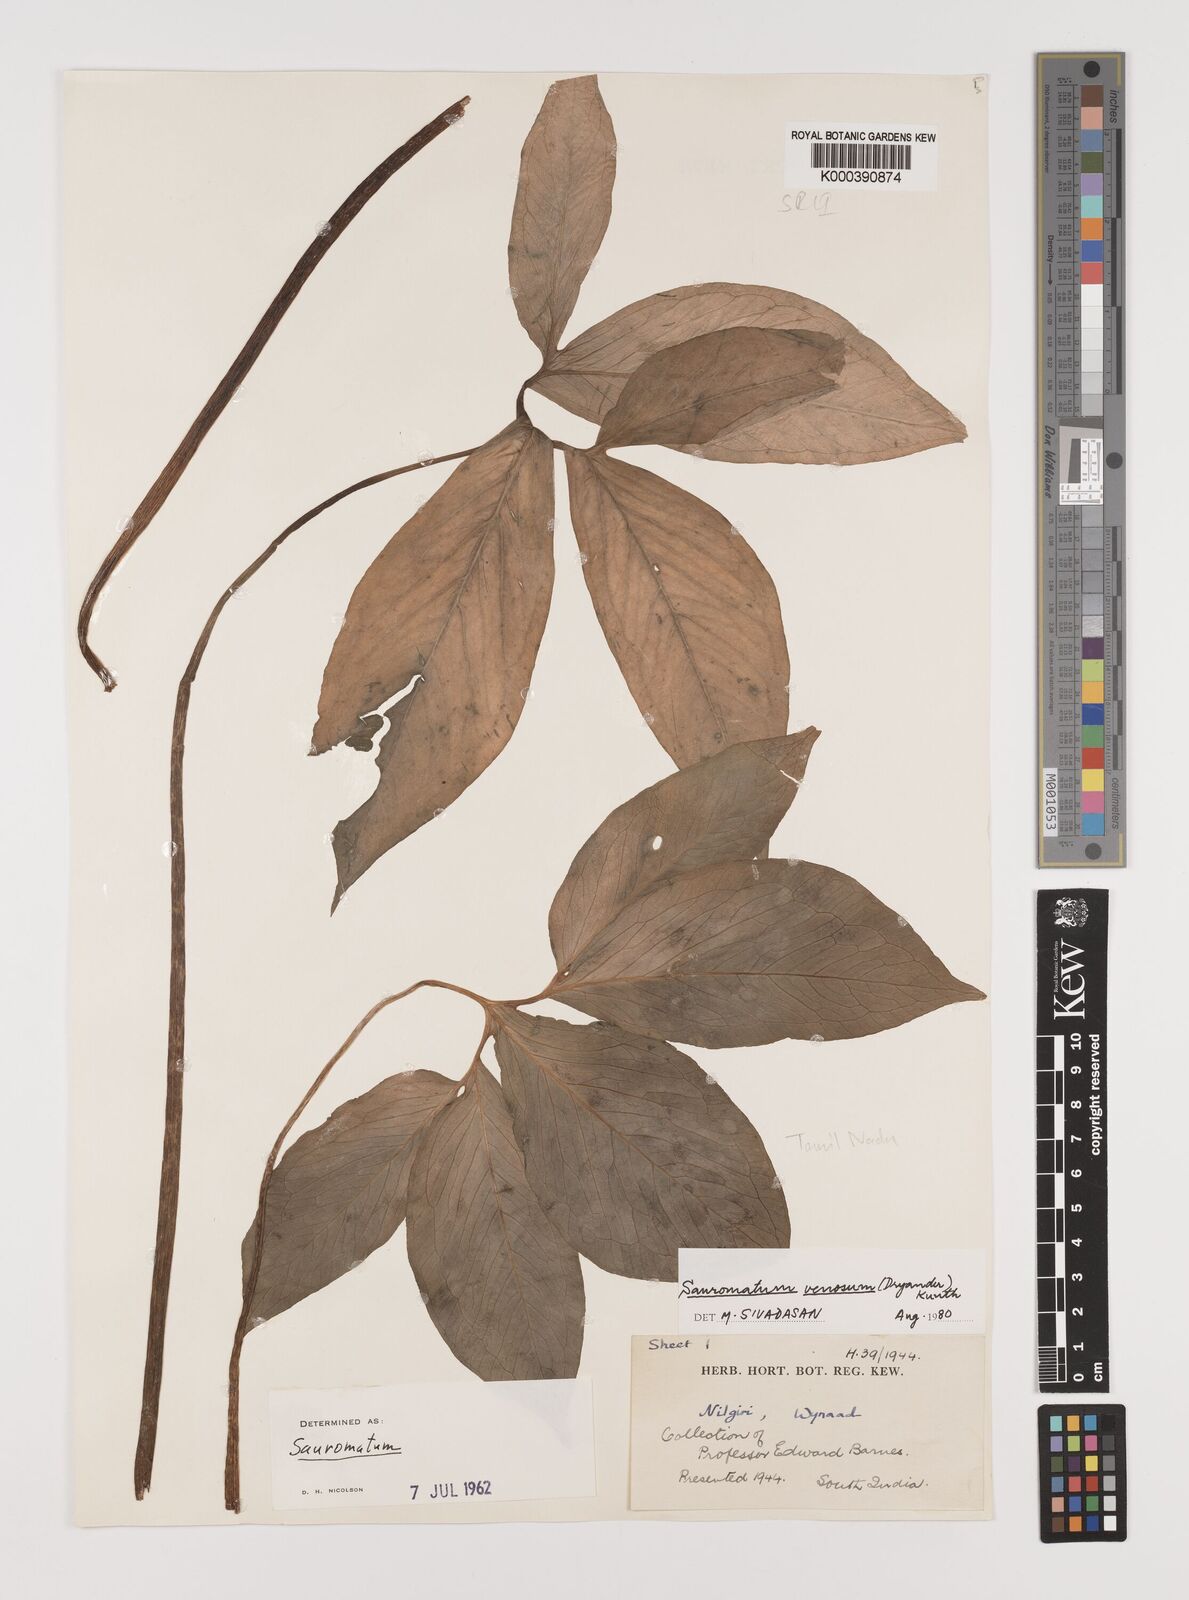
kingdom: Plantae
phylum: Tracheophyta
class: Liliopsida
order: Alismatales
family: Araceae
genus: Sauromatum
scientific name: Sauromatum venosum
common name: Voodoo lily
